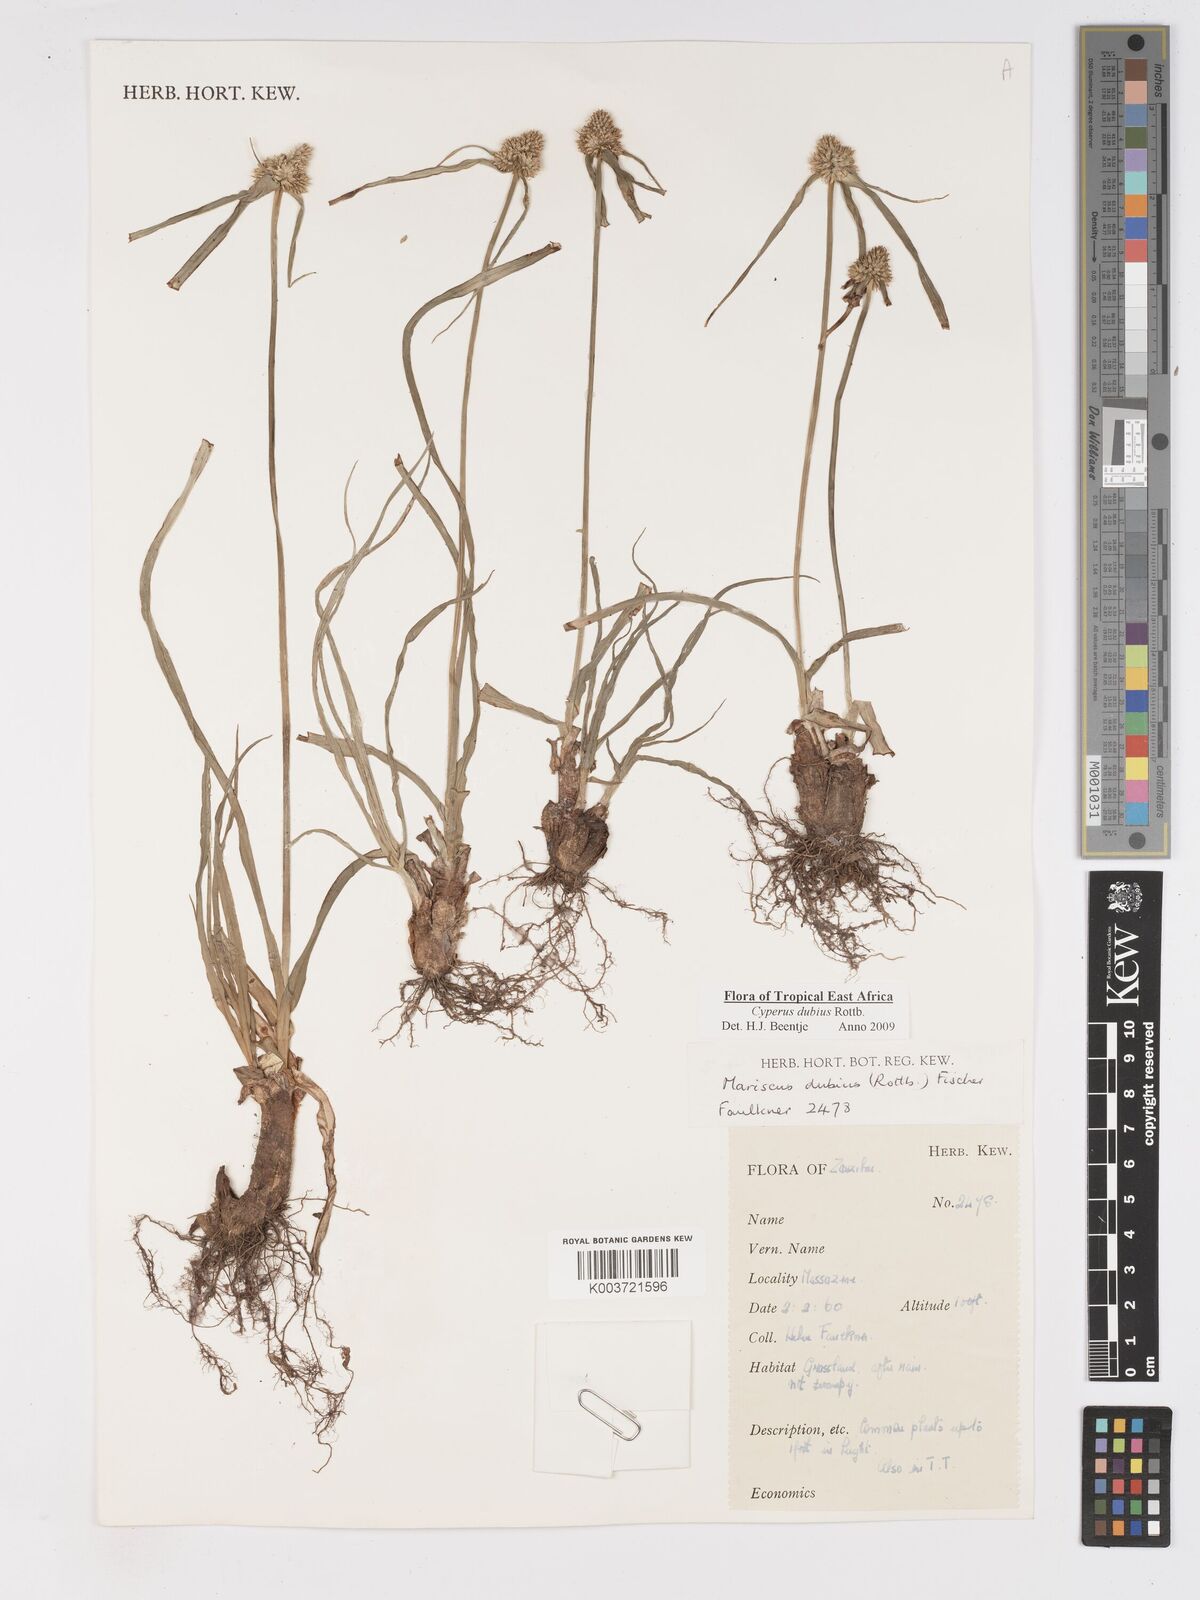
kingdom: Plantae
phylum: Tracheophyta
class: Liliopsida
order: Poales
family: Cyperaceae
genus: Cyperus
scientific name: Cyperus dubius
